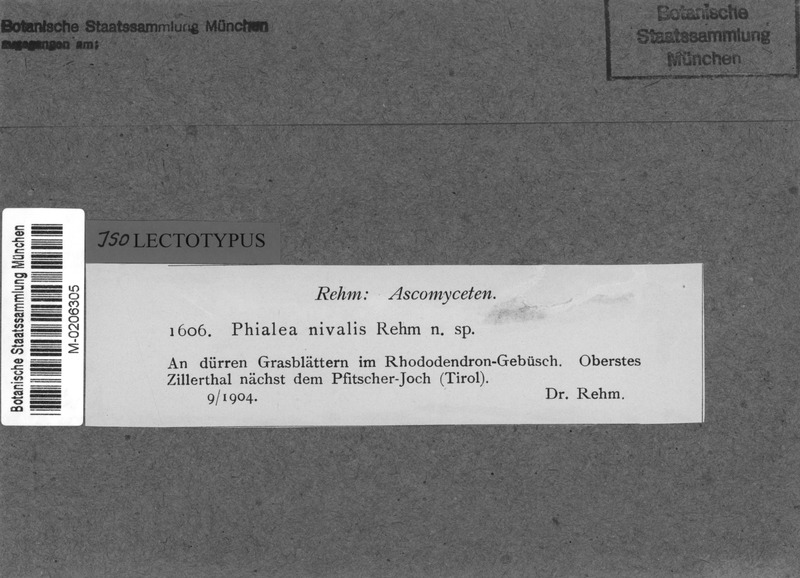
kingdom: Fungi
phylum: Ascomycota
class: Leotiomycetes
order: Helotiales
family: Helotiaceae
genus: Crocicreas
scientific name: Crocicreas nivale
